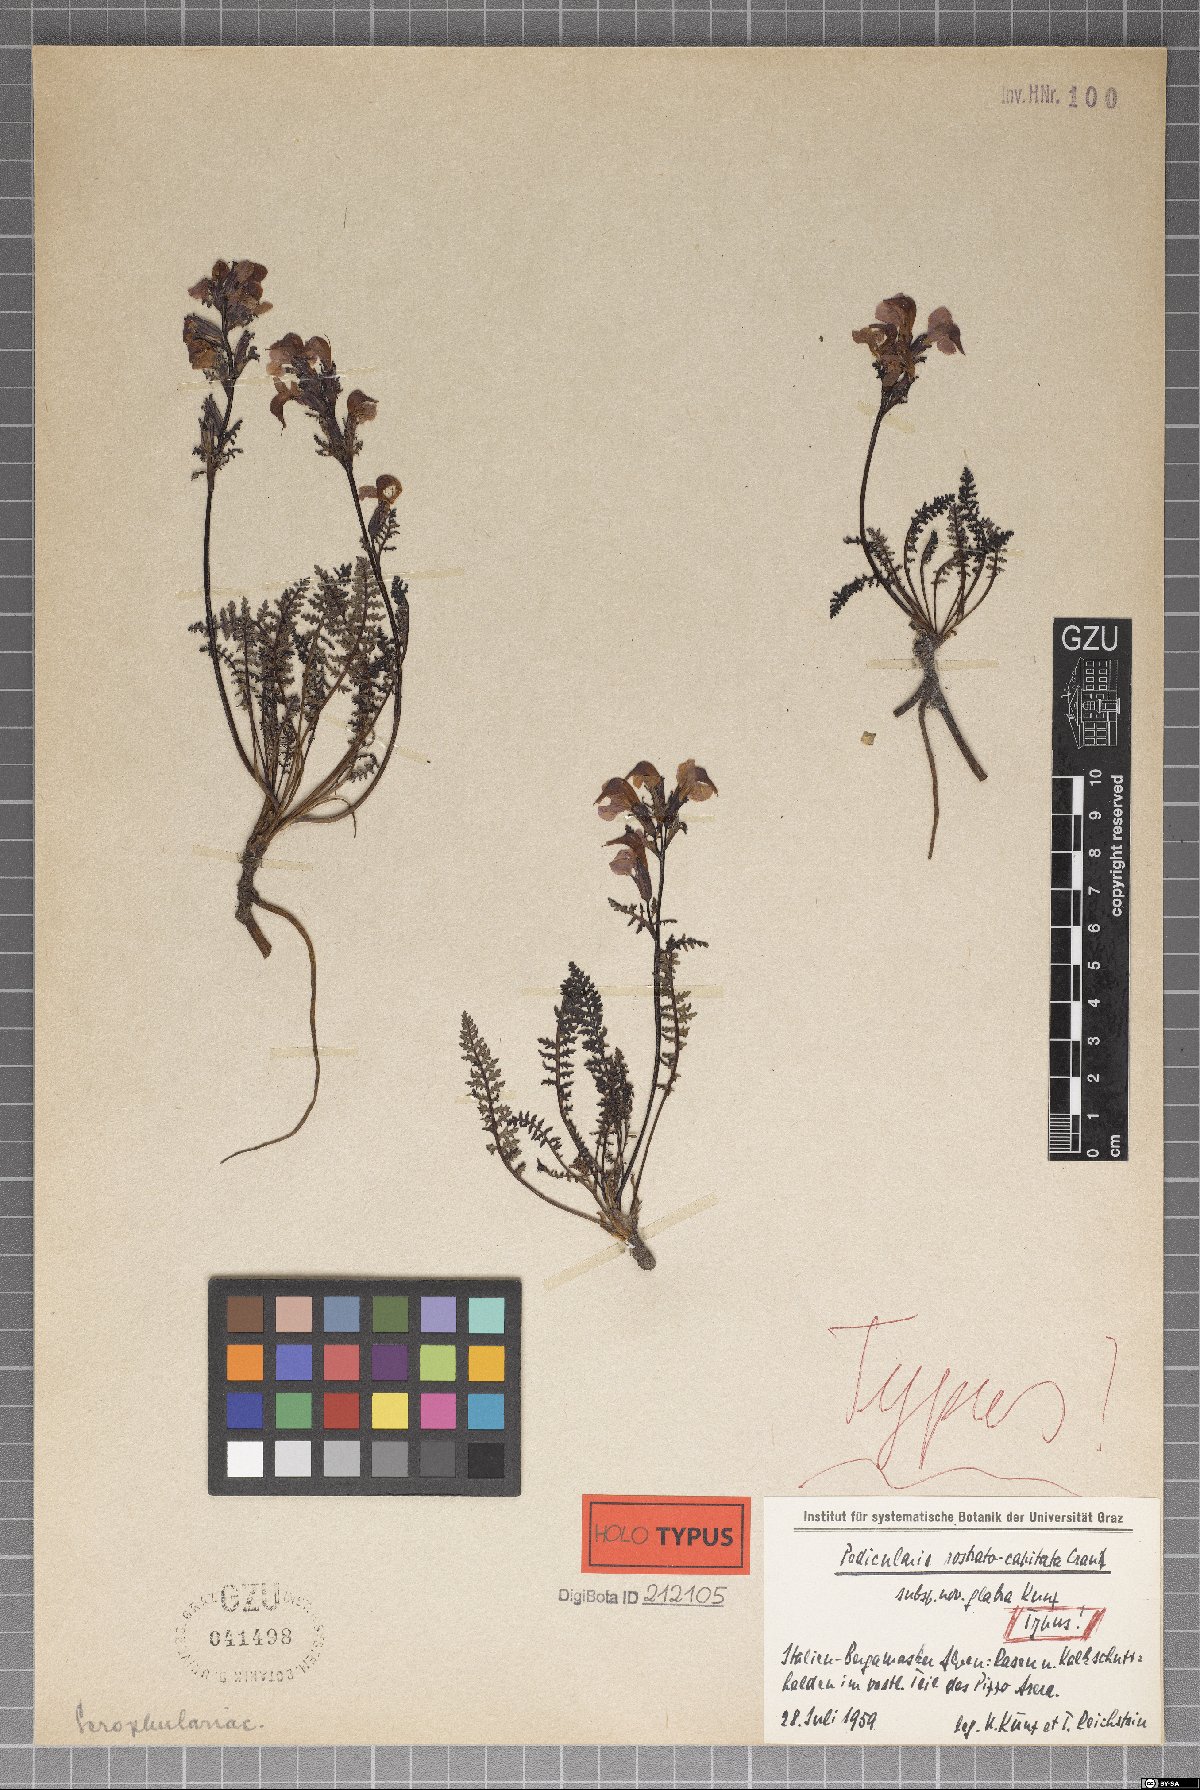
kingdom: Plantae
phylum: Tracheophyta
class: Magnoliopsida
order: Lamiales
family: Orobanchaceae
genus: Pedicularis
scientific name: Pedicularis rostratocapitata
